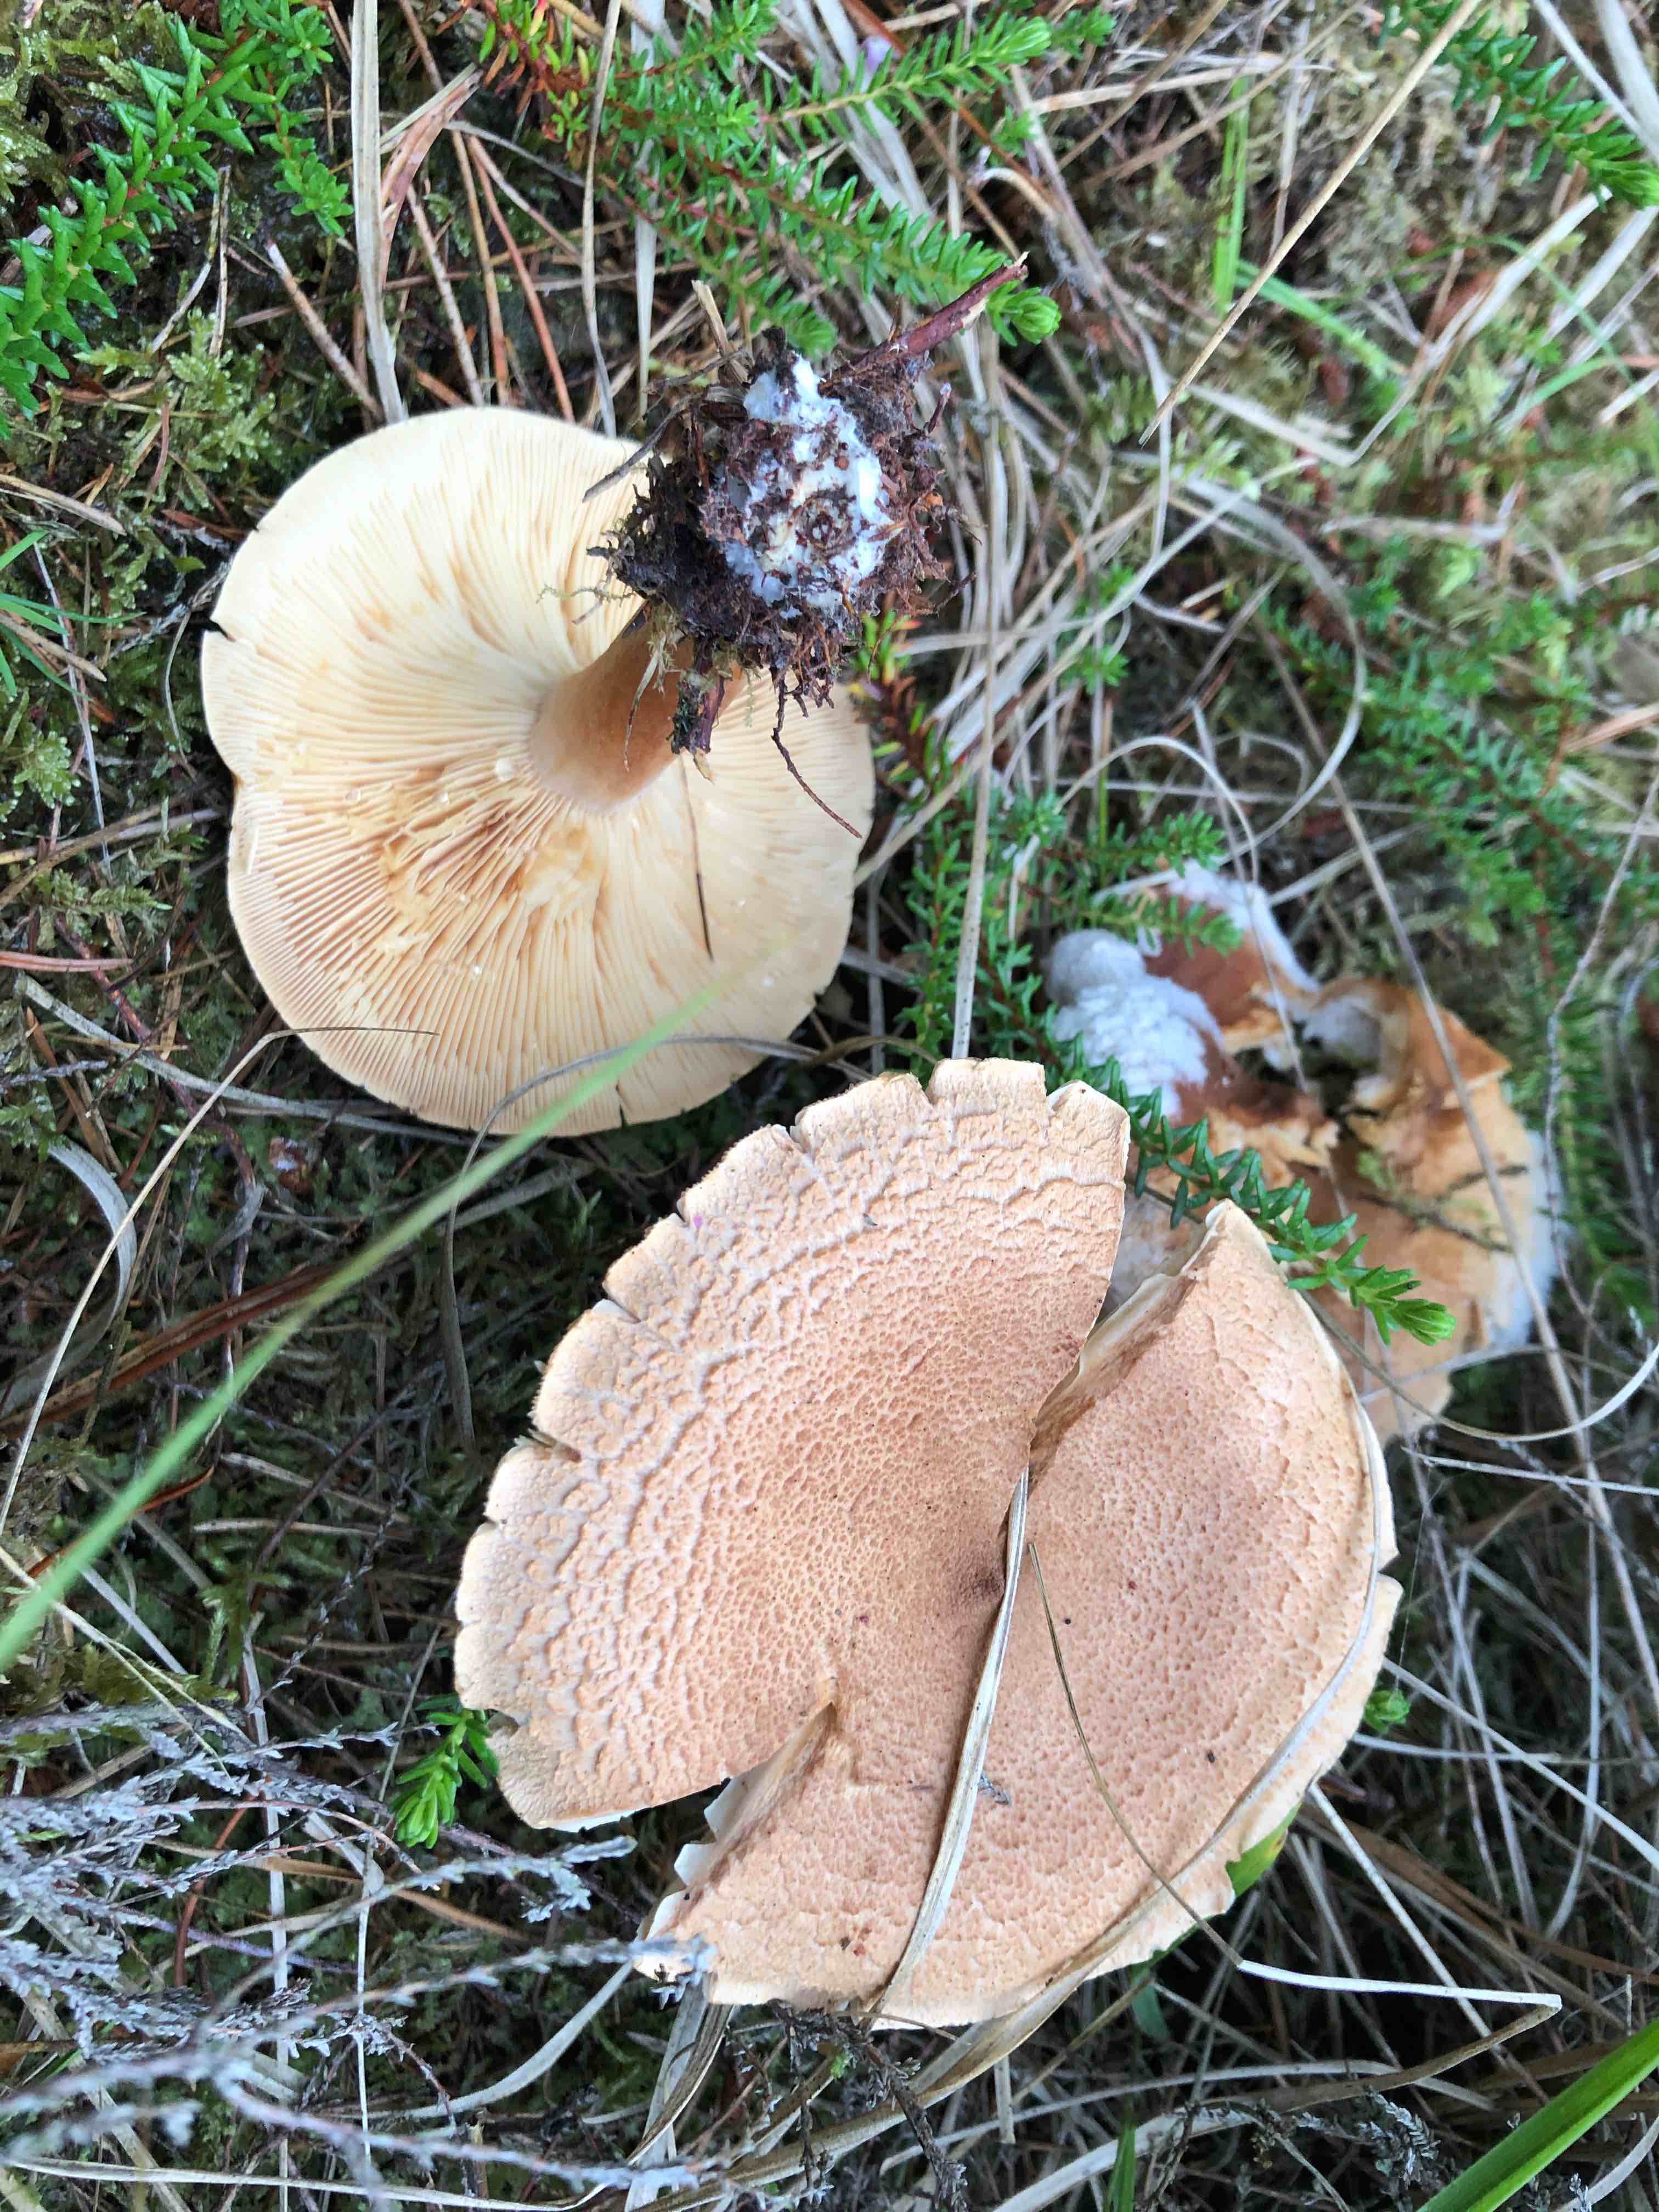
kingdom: Fungi
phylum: Basidiomycota
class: Agaricomycetes
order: Russulales
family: Russulaceae
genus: Lactarius
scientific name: Lactarius helvus
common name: mose-mælkehat
